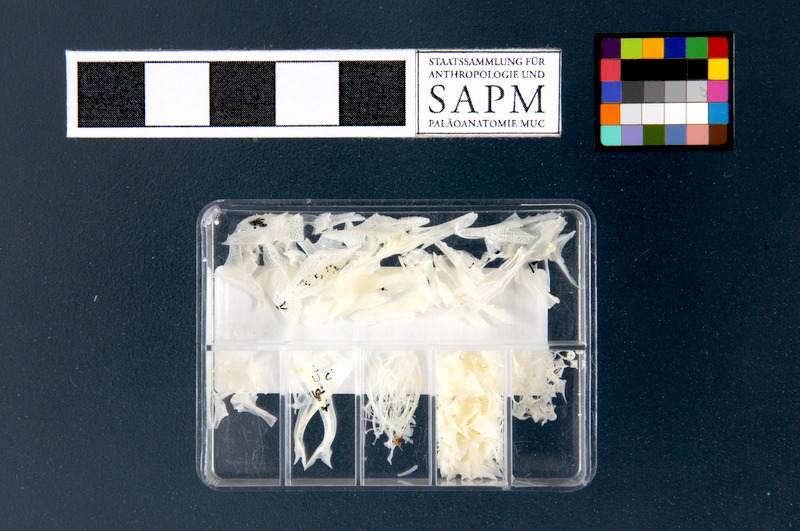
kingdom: Animalia
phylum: Chordata
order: Scorpaeniformes
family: Peristediidae
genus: Peristedion
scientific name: Peristedion cataphractum
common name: Armed gurnard
